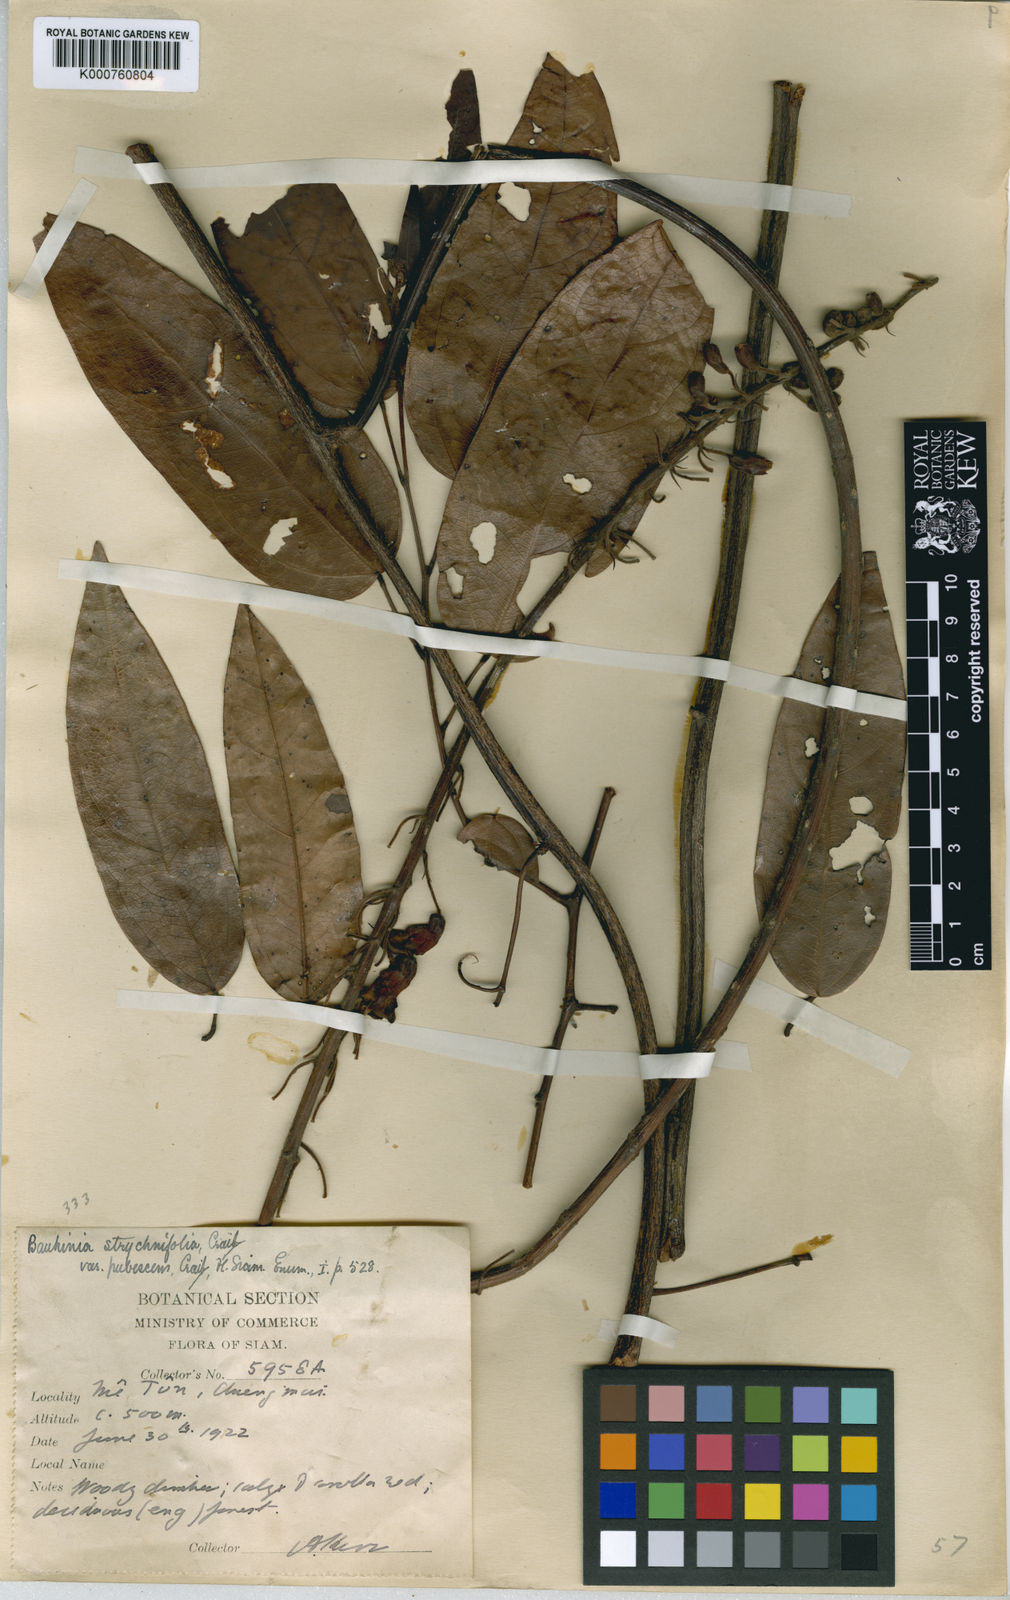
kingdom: Plantae
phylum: Tracheophyta
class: Magnoliopsida
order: Fabales
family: Fabaceae
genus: Phanera
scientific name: Phanera similis
